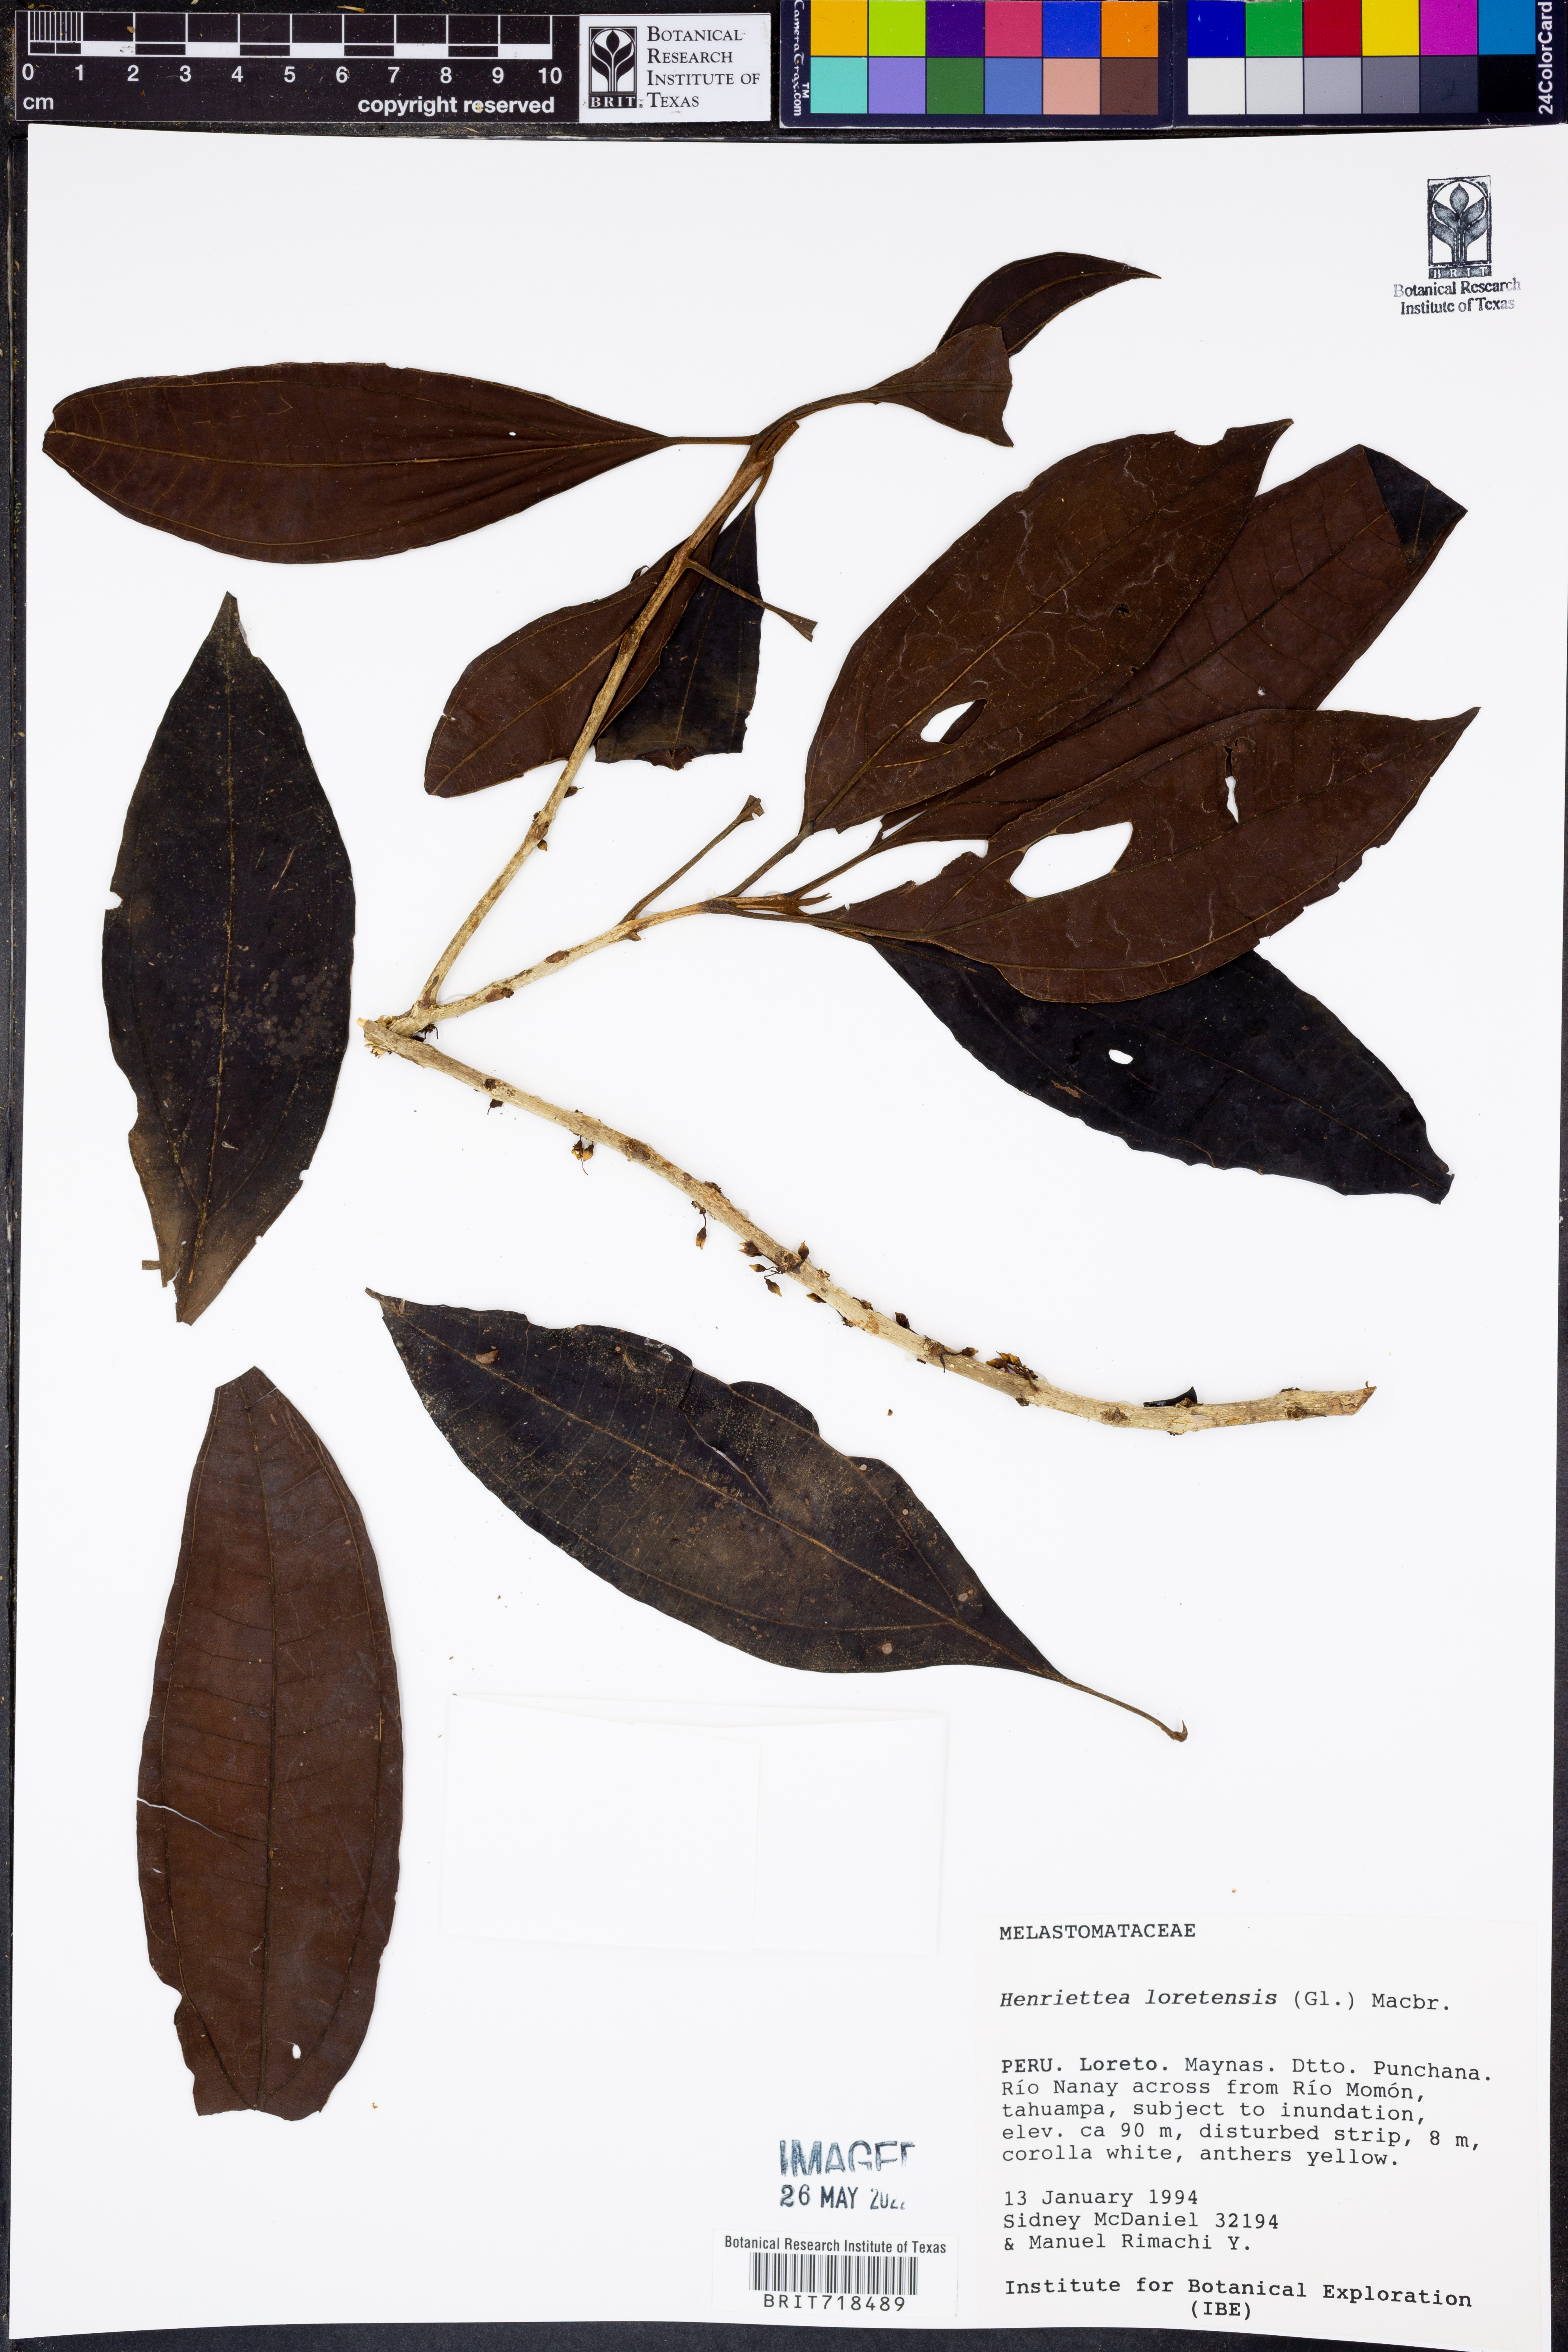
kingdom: Plantae
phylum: Tracheophyta
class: Magnoliopsida
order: Myrtales
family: Melastomataceae
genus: Henriettea
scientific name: Henriettea
